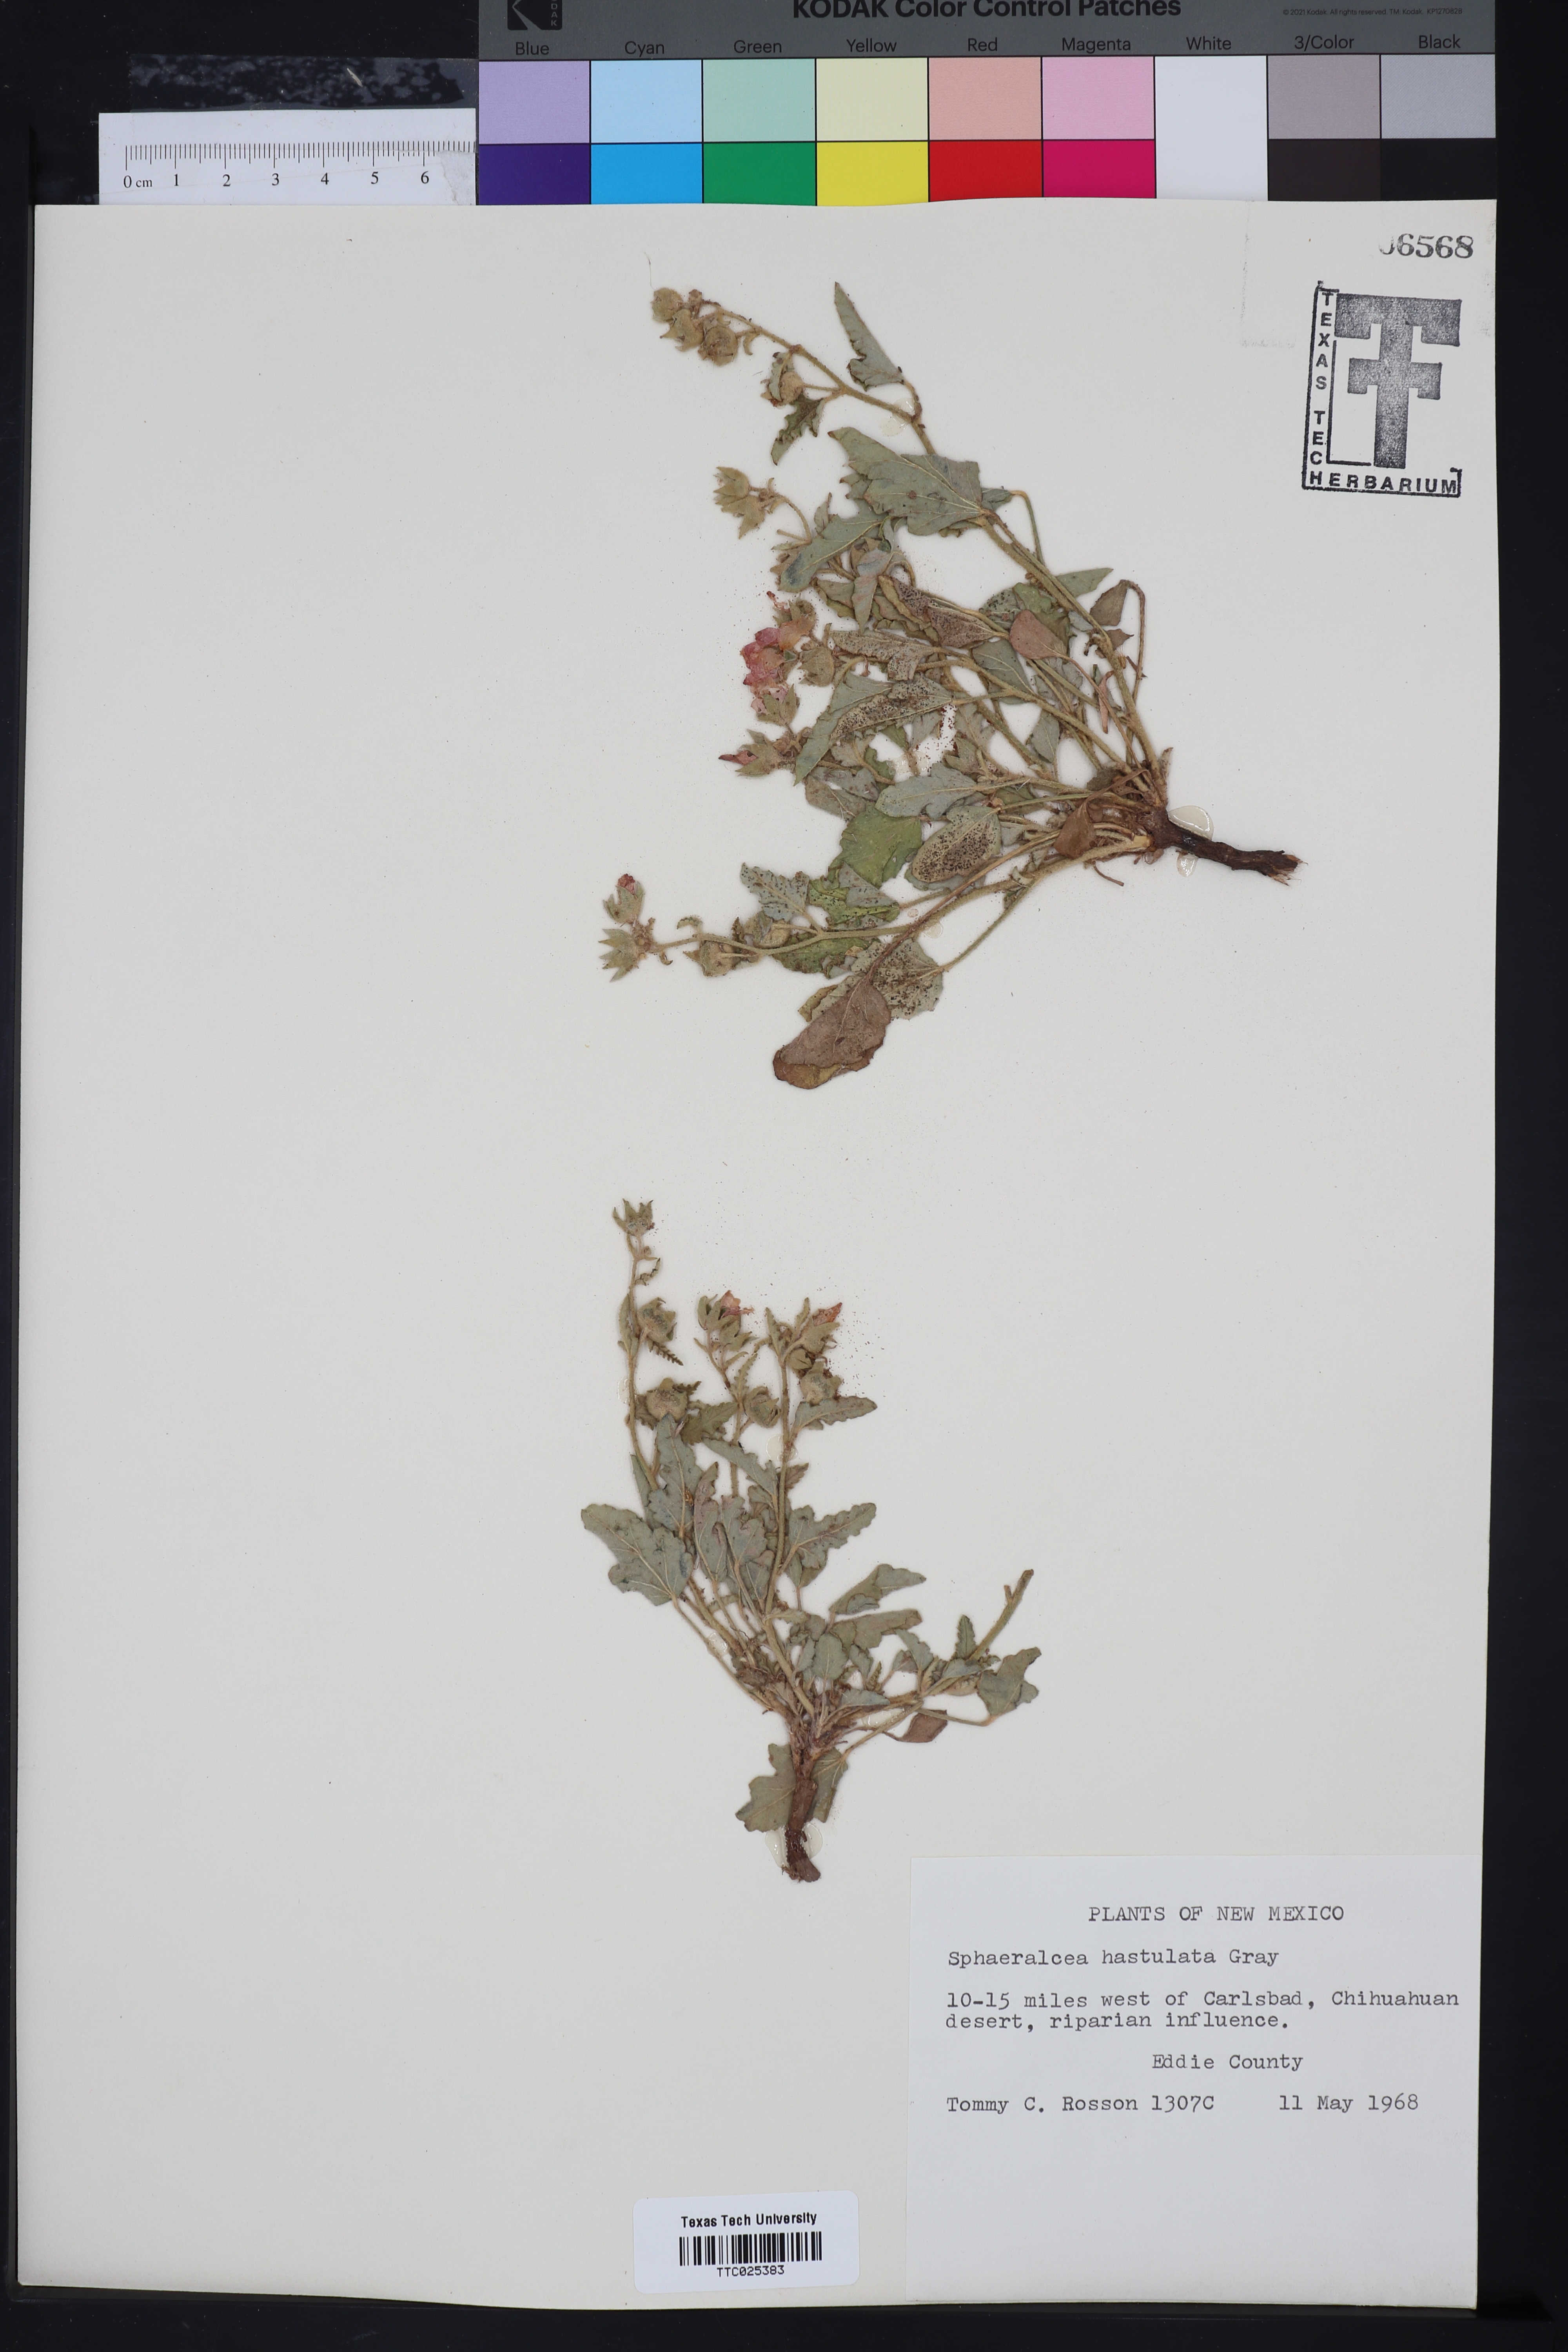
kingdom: Plantae
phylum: Tracheophyta
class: Magnoliopsida
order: Malvales
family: Malvaceae
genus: Sphaeralcea
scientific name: Sphaeralcea hastulata
